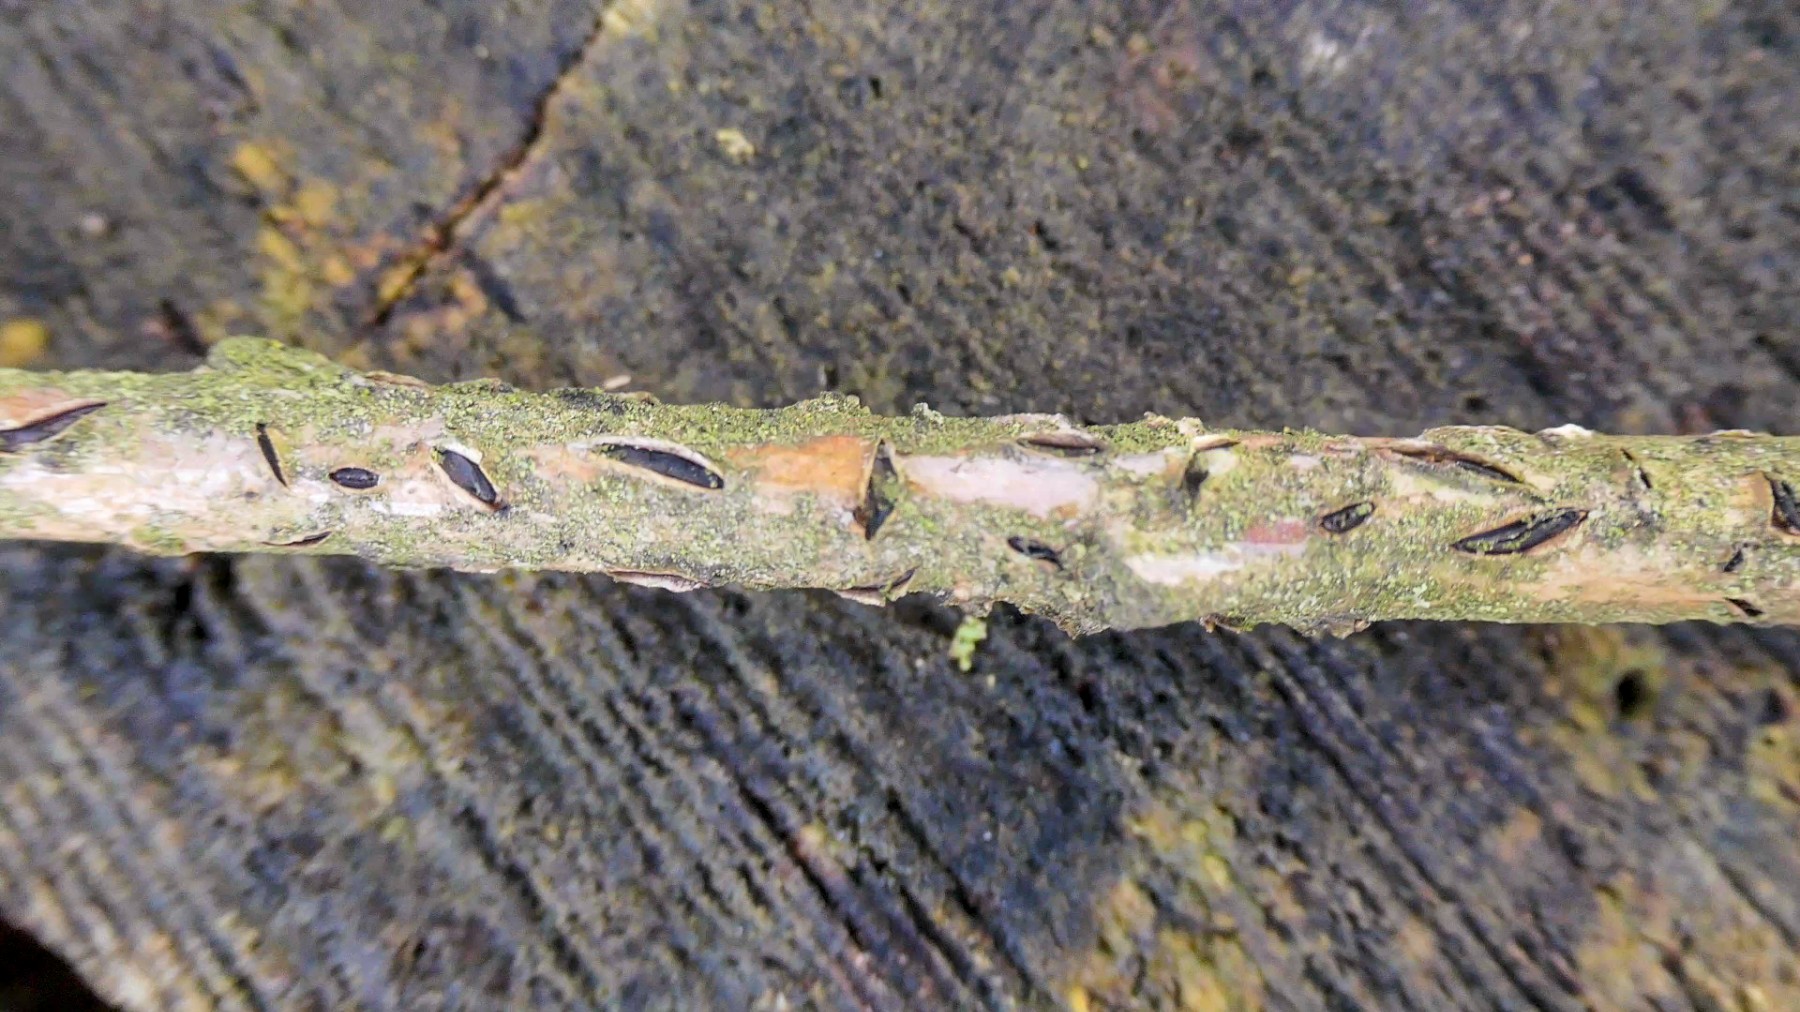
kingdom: Fungi
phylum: Ascomycota
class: Leotiomycetes
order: Rhytismatales
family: Rhytismataceae
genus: Colpoma
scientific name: Colpoma quercinum
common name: ege-sprækkeskive
